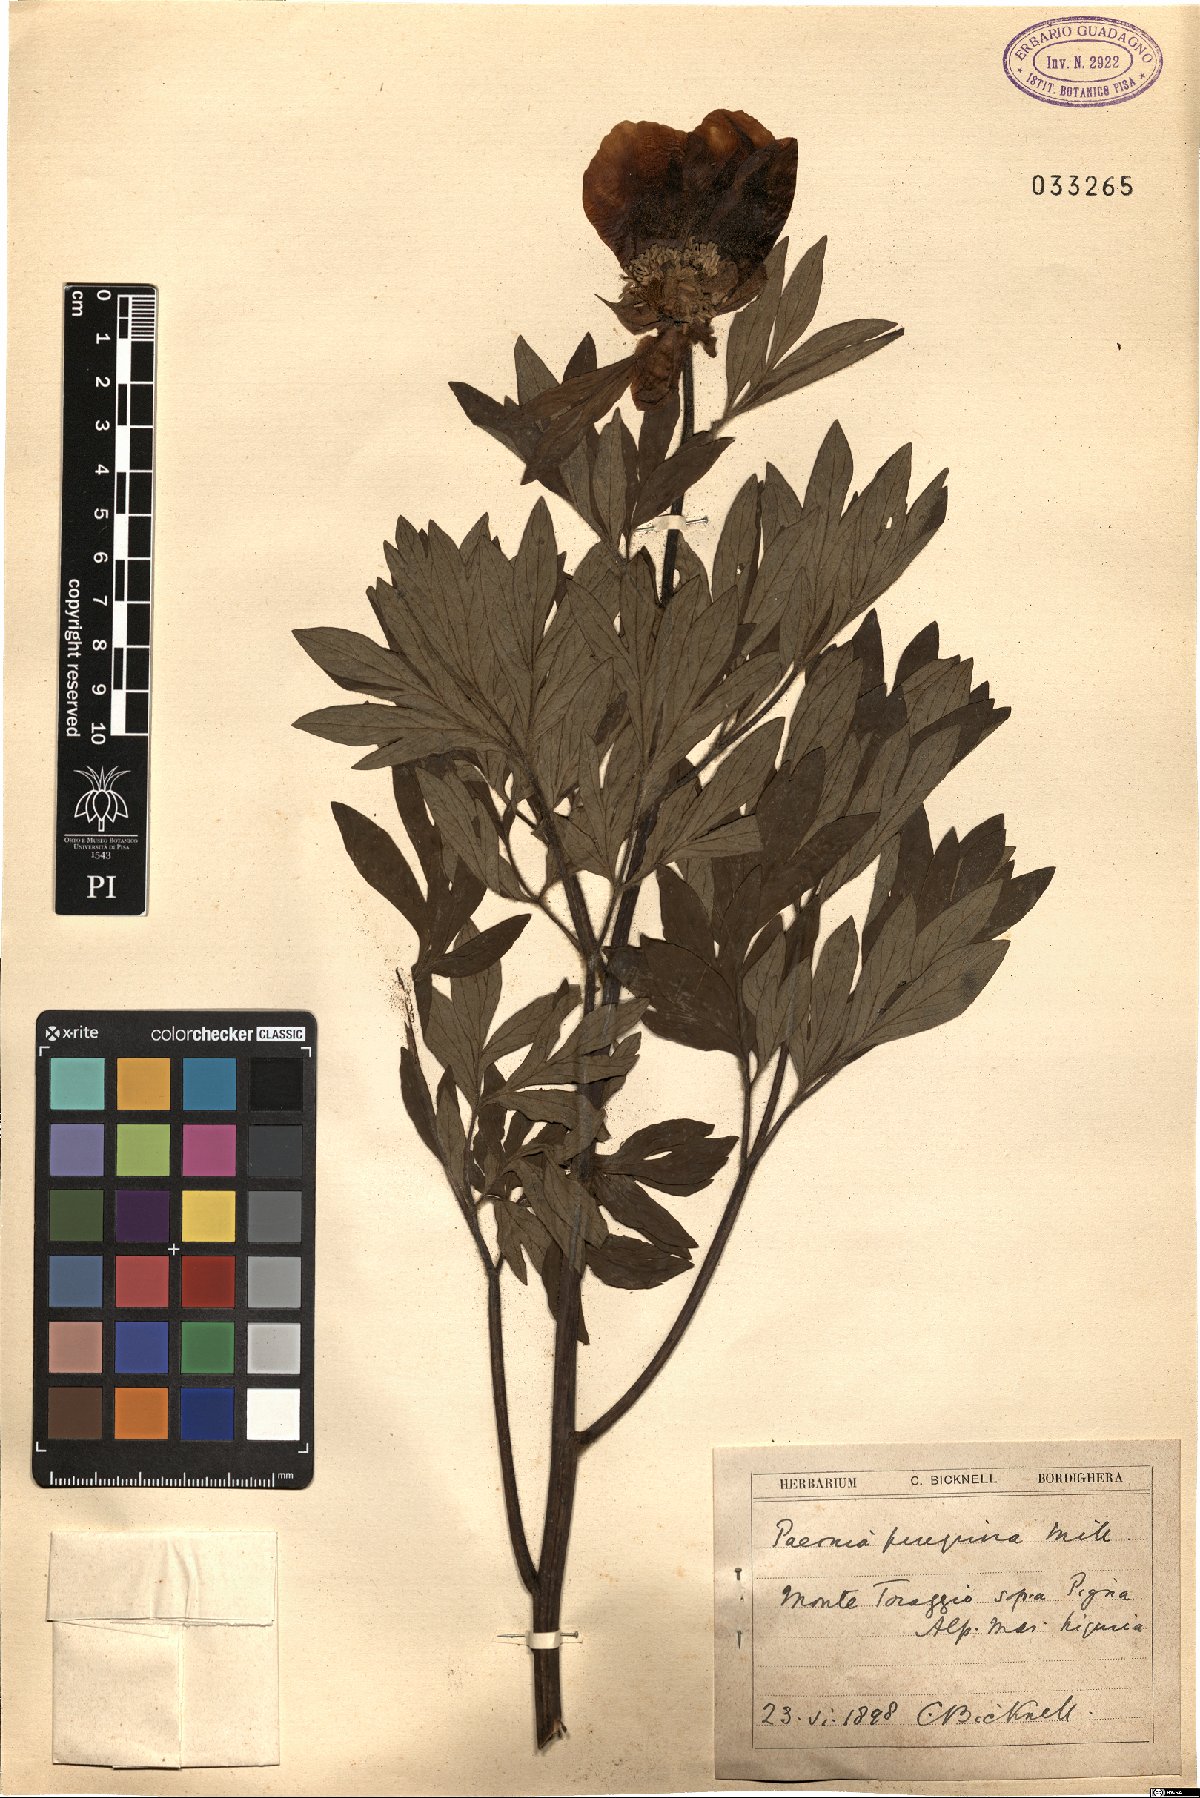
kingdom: Plantae
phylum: Tracheophyta
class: Magnoliopsida
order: Saxifragales
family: Paeoniaceae
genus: Paeonia
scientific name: Paeonia peregrina
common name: Scarlet peony
